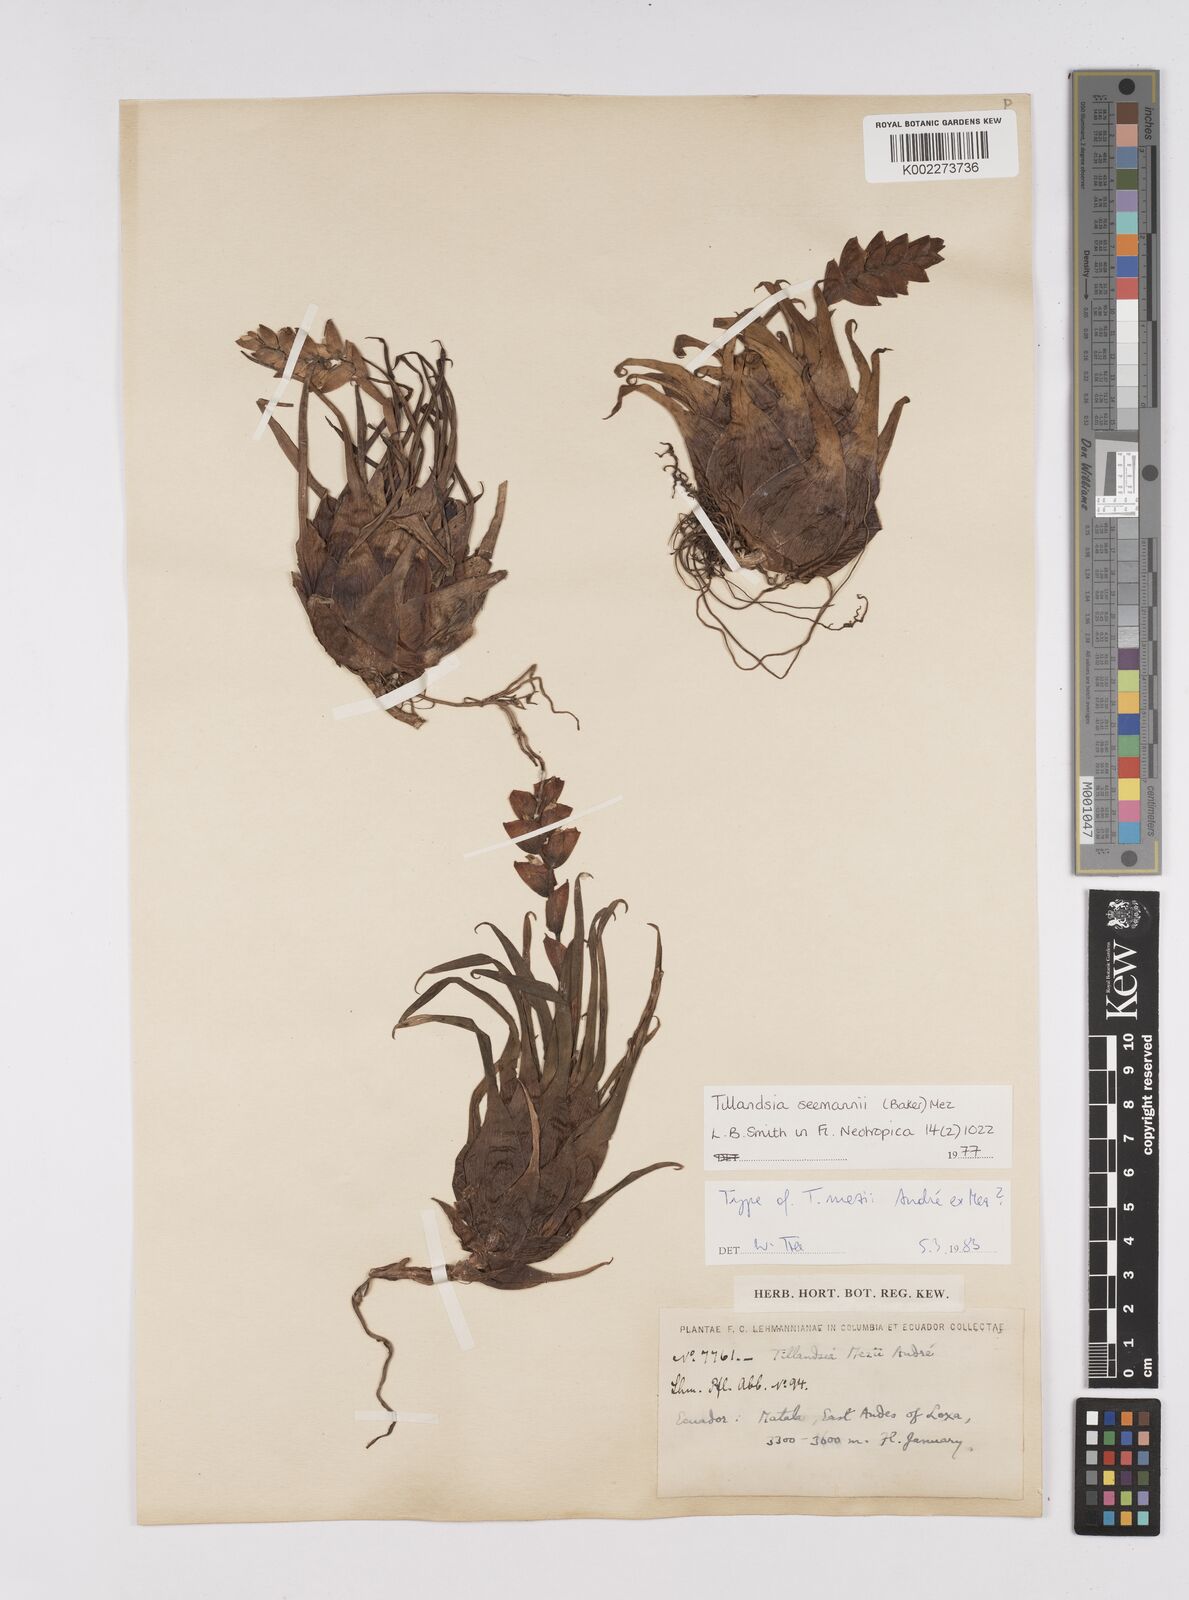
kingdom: Plantae
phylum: Tracheophyta
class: Liliopsida
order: Poales
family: Bromeliaceae
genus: Racinaea
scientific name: Racinaea seemannii
